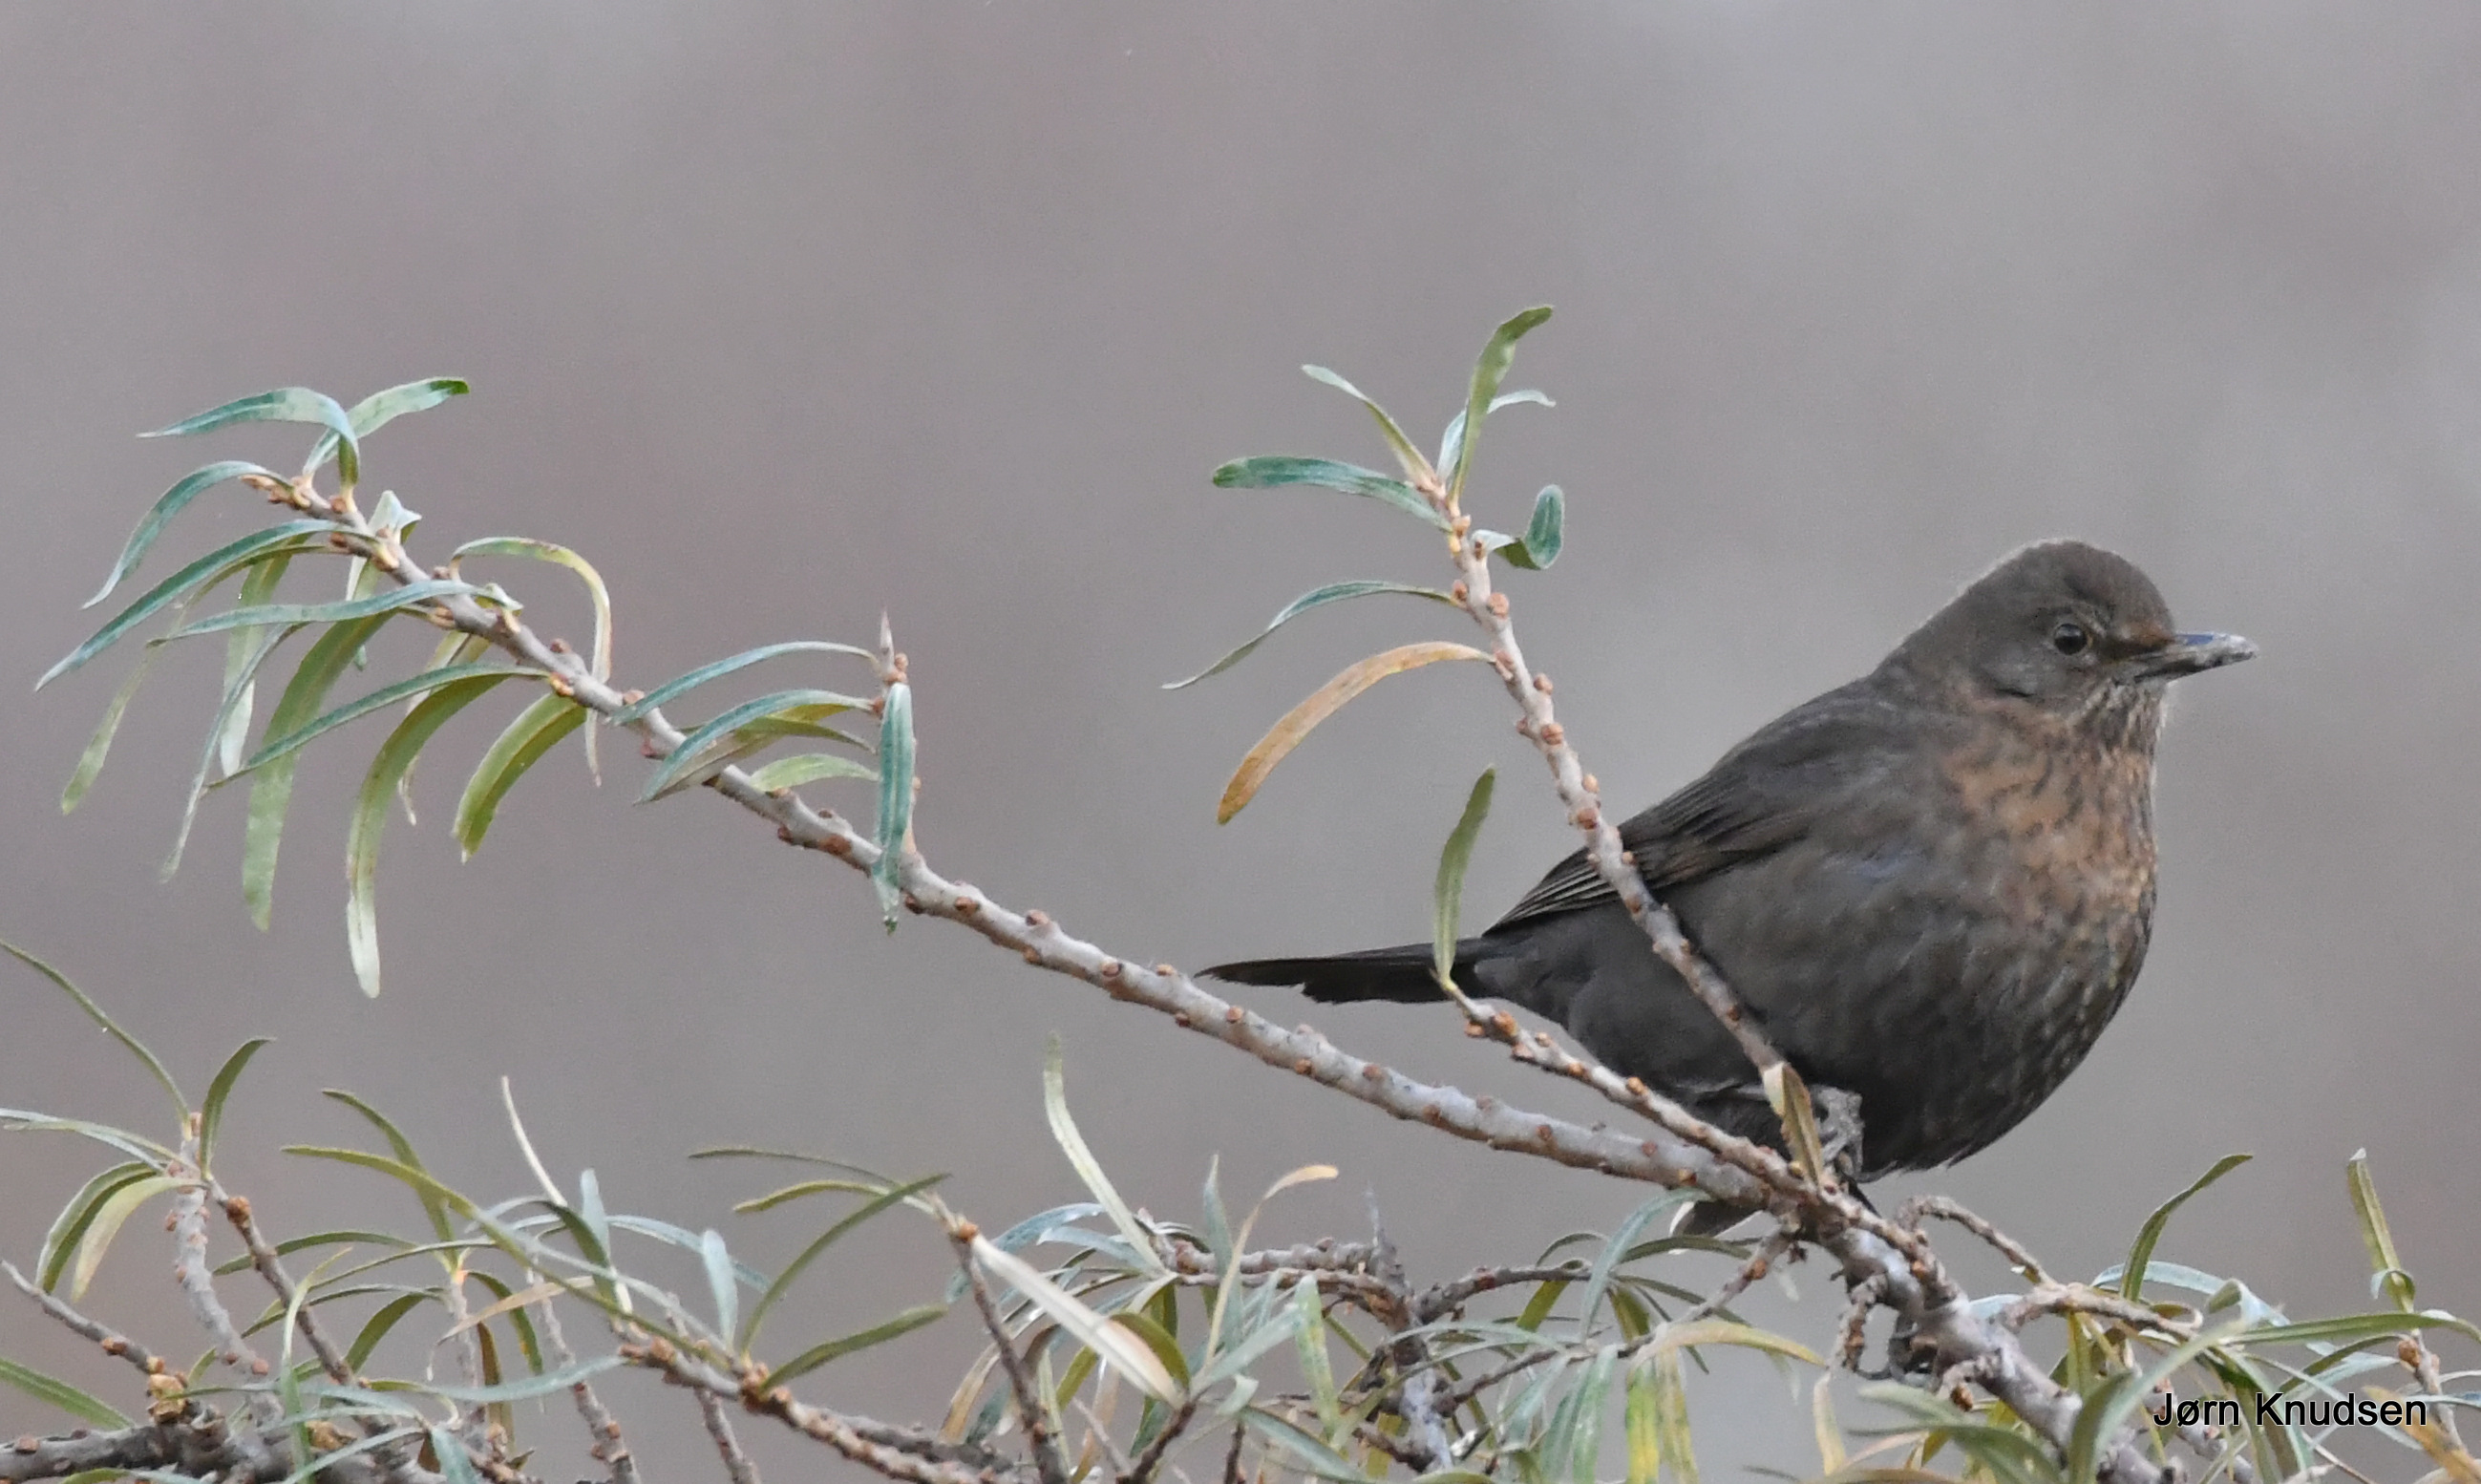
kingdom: Animalia
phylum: Chordata
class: Aves
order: Passeriformes
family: Turdidae
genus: Turdus
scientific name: Turdus merula
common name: Solsort
